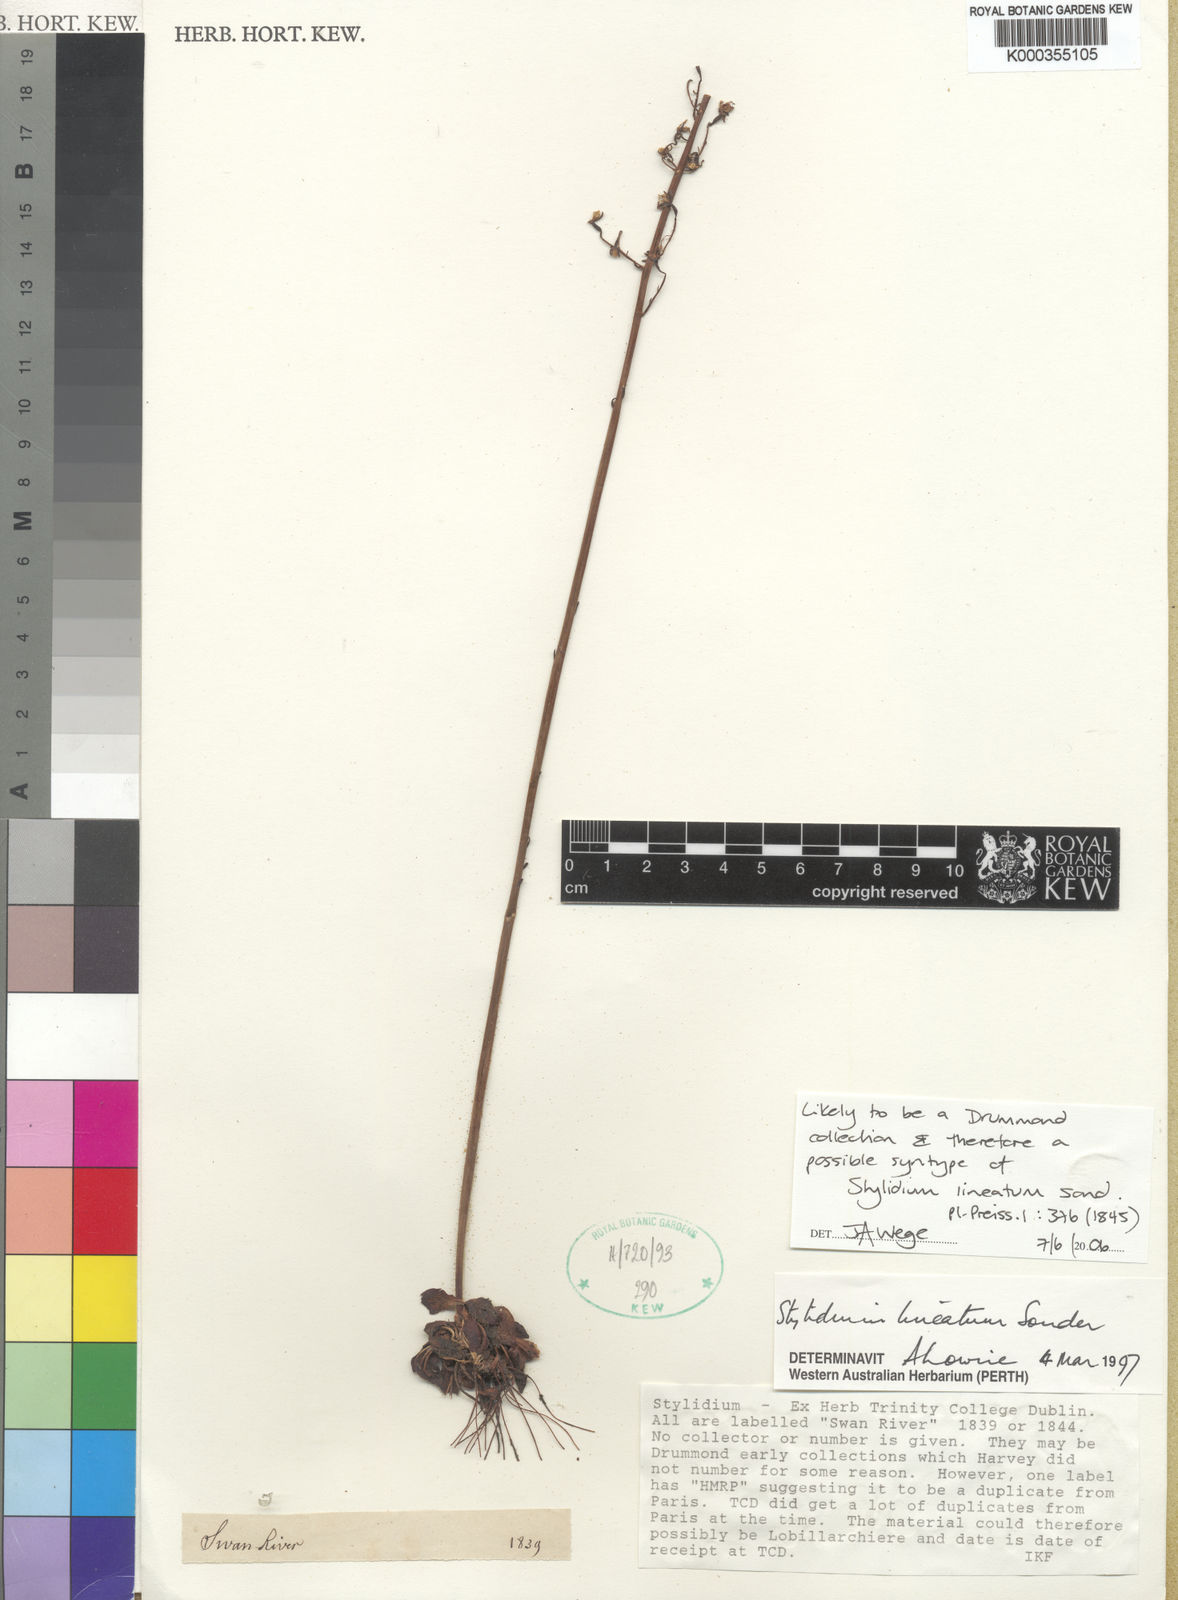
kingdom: Plantae
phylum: Tracheophyta
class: Magnoliopsida
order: Asterales
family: Stylidiaceae
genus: Stylidium
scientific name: Stylidium lineatum
